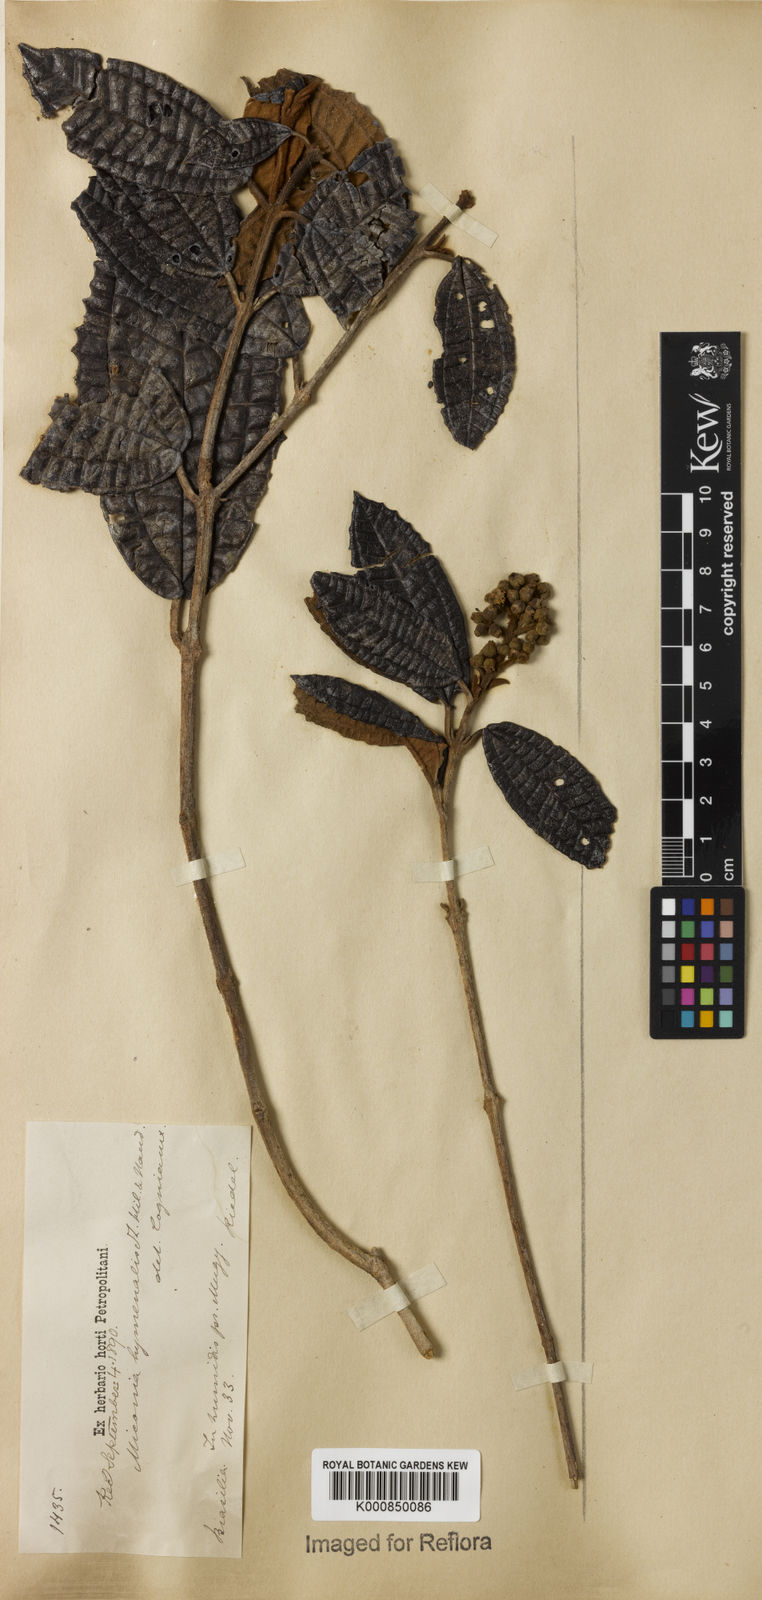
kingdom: Plantae
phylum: Tracheophyta
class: Magnoliopsida
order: Myrtales
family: Melastomataceae
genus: Miconia
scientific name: Miconia hyemalis
